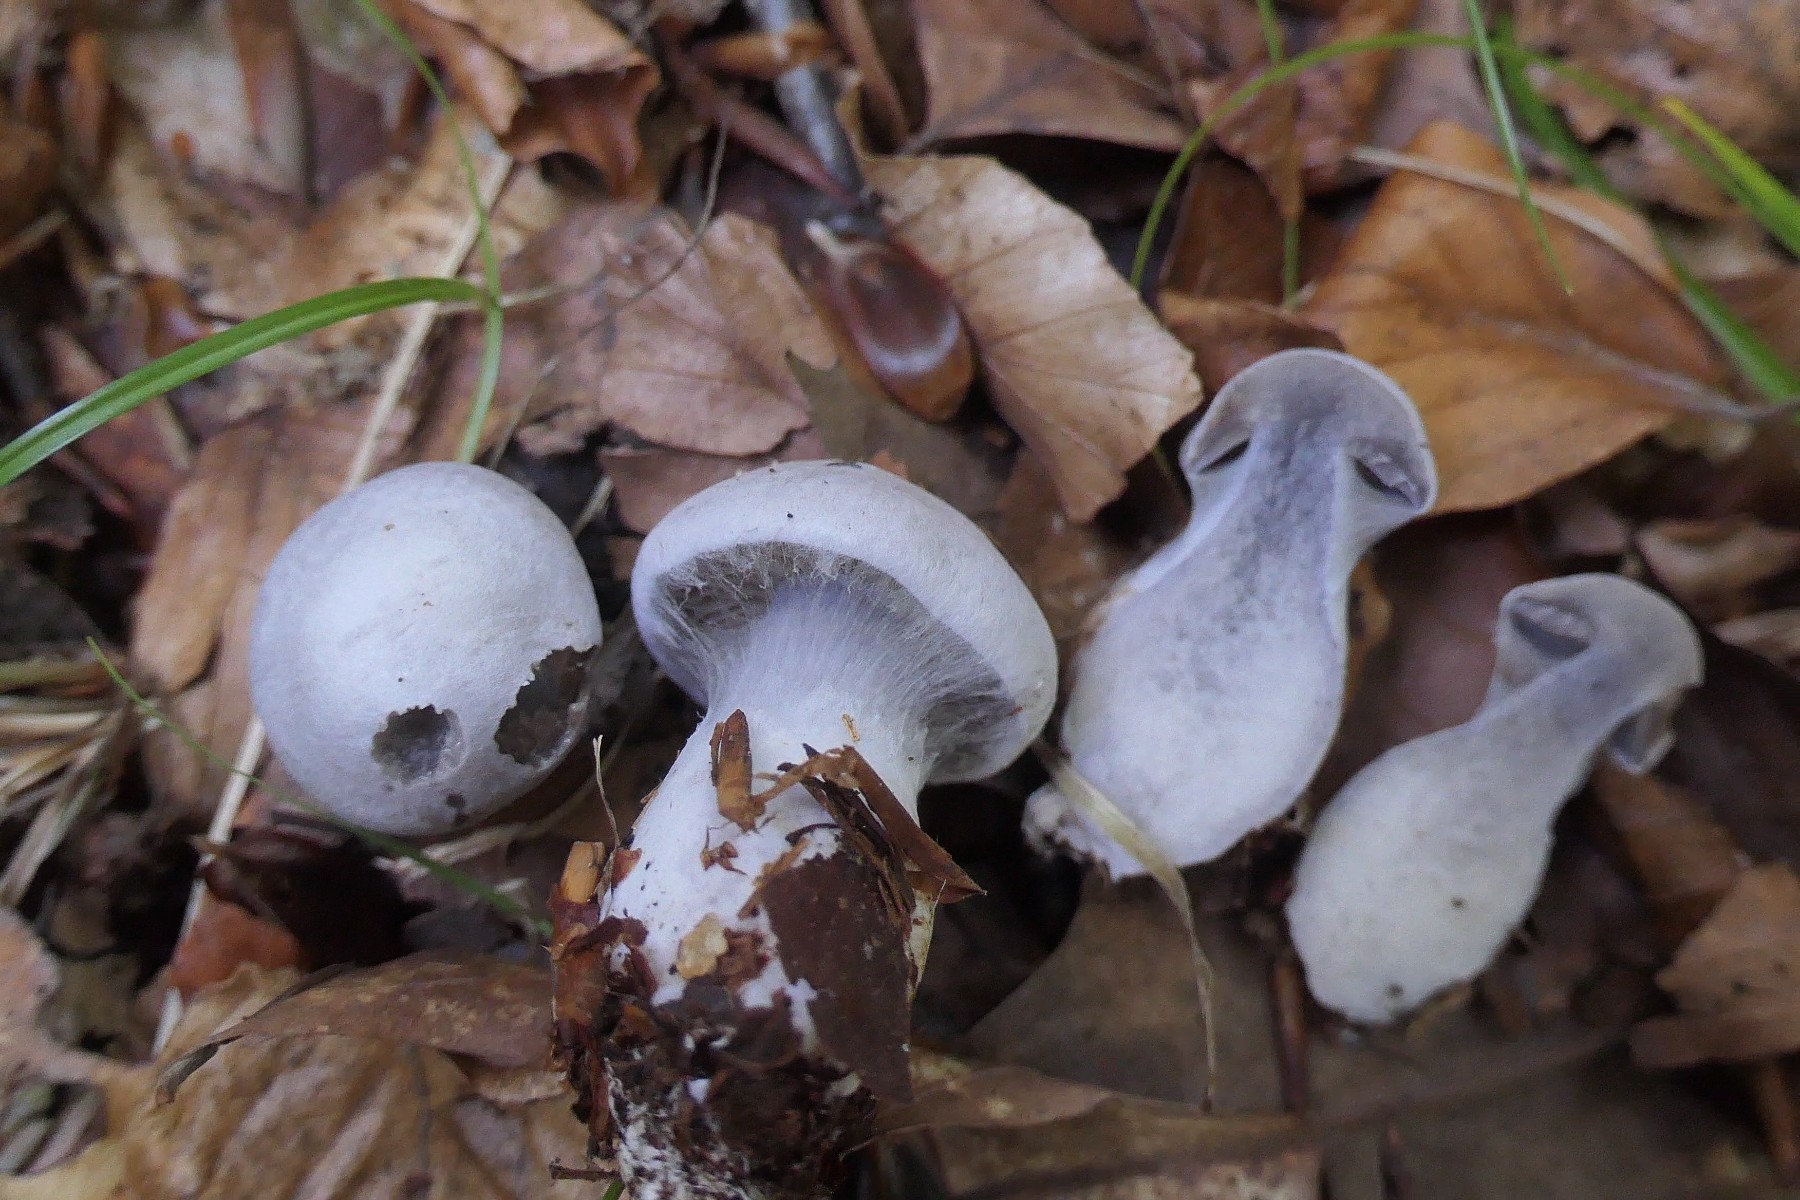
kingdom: Fungi
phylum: Basidiomycota
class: Agaricomycetes
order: Agaricales
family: Cortinariaceae
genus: Cortinarius
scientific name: Cortinarius alboviolaceus
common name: lysviolet slørhat
